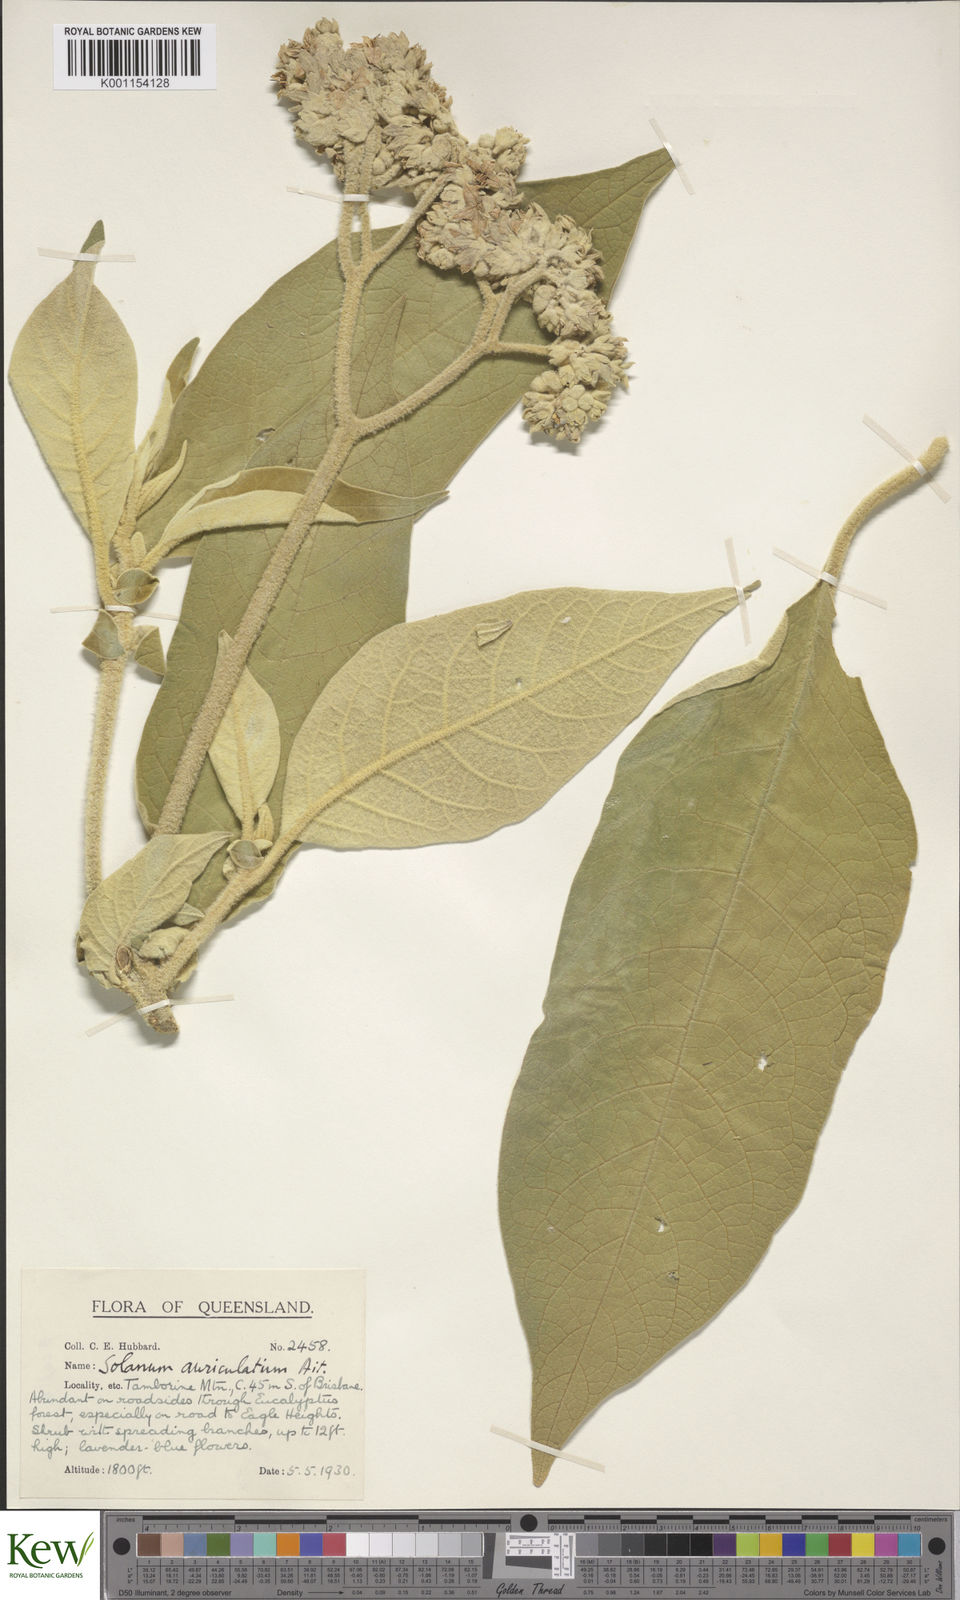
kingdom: Plantae
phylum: Tracheophyta
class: Magnoliopsida
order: Solanales
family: Solanaceae
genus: Solanum
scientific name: Solanum mauritianum
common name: Earleaf nightshade
